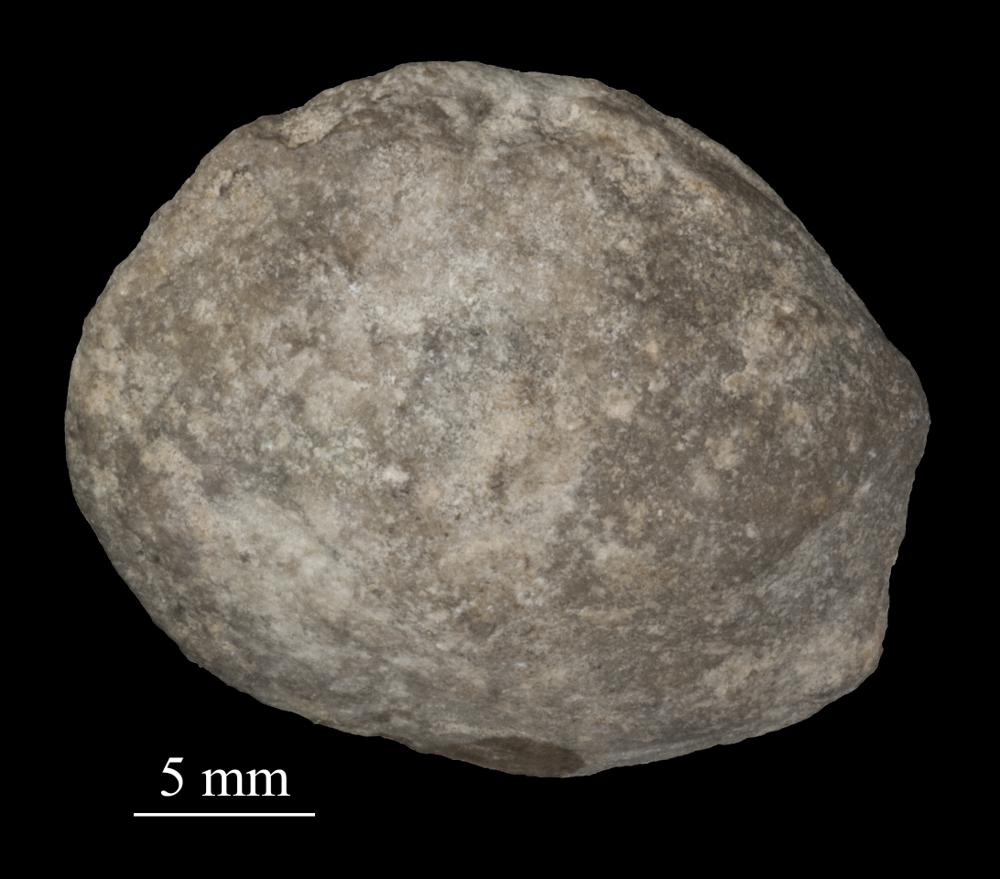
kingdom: Animalia
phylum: Mollusca
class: Bivalvia
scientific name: Bivalvia
